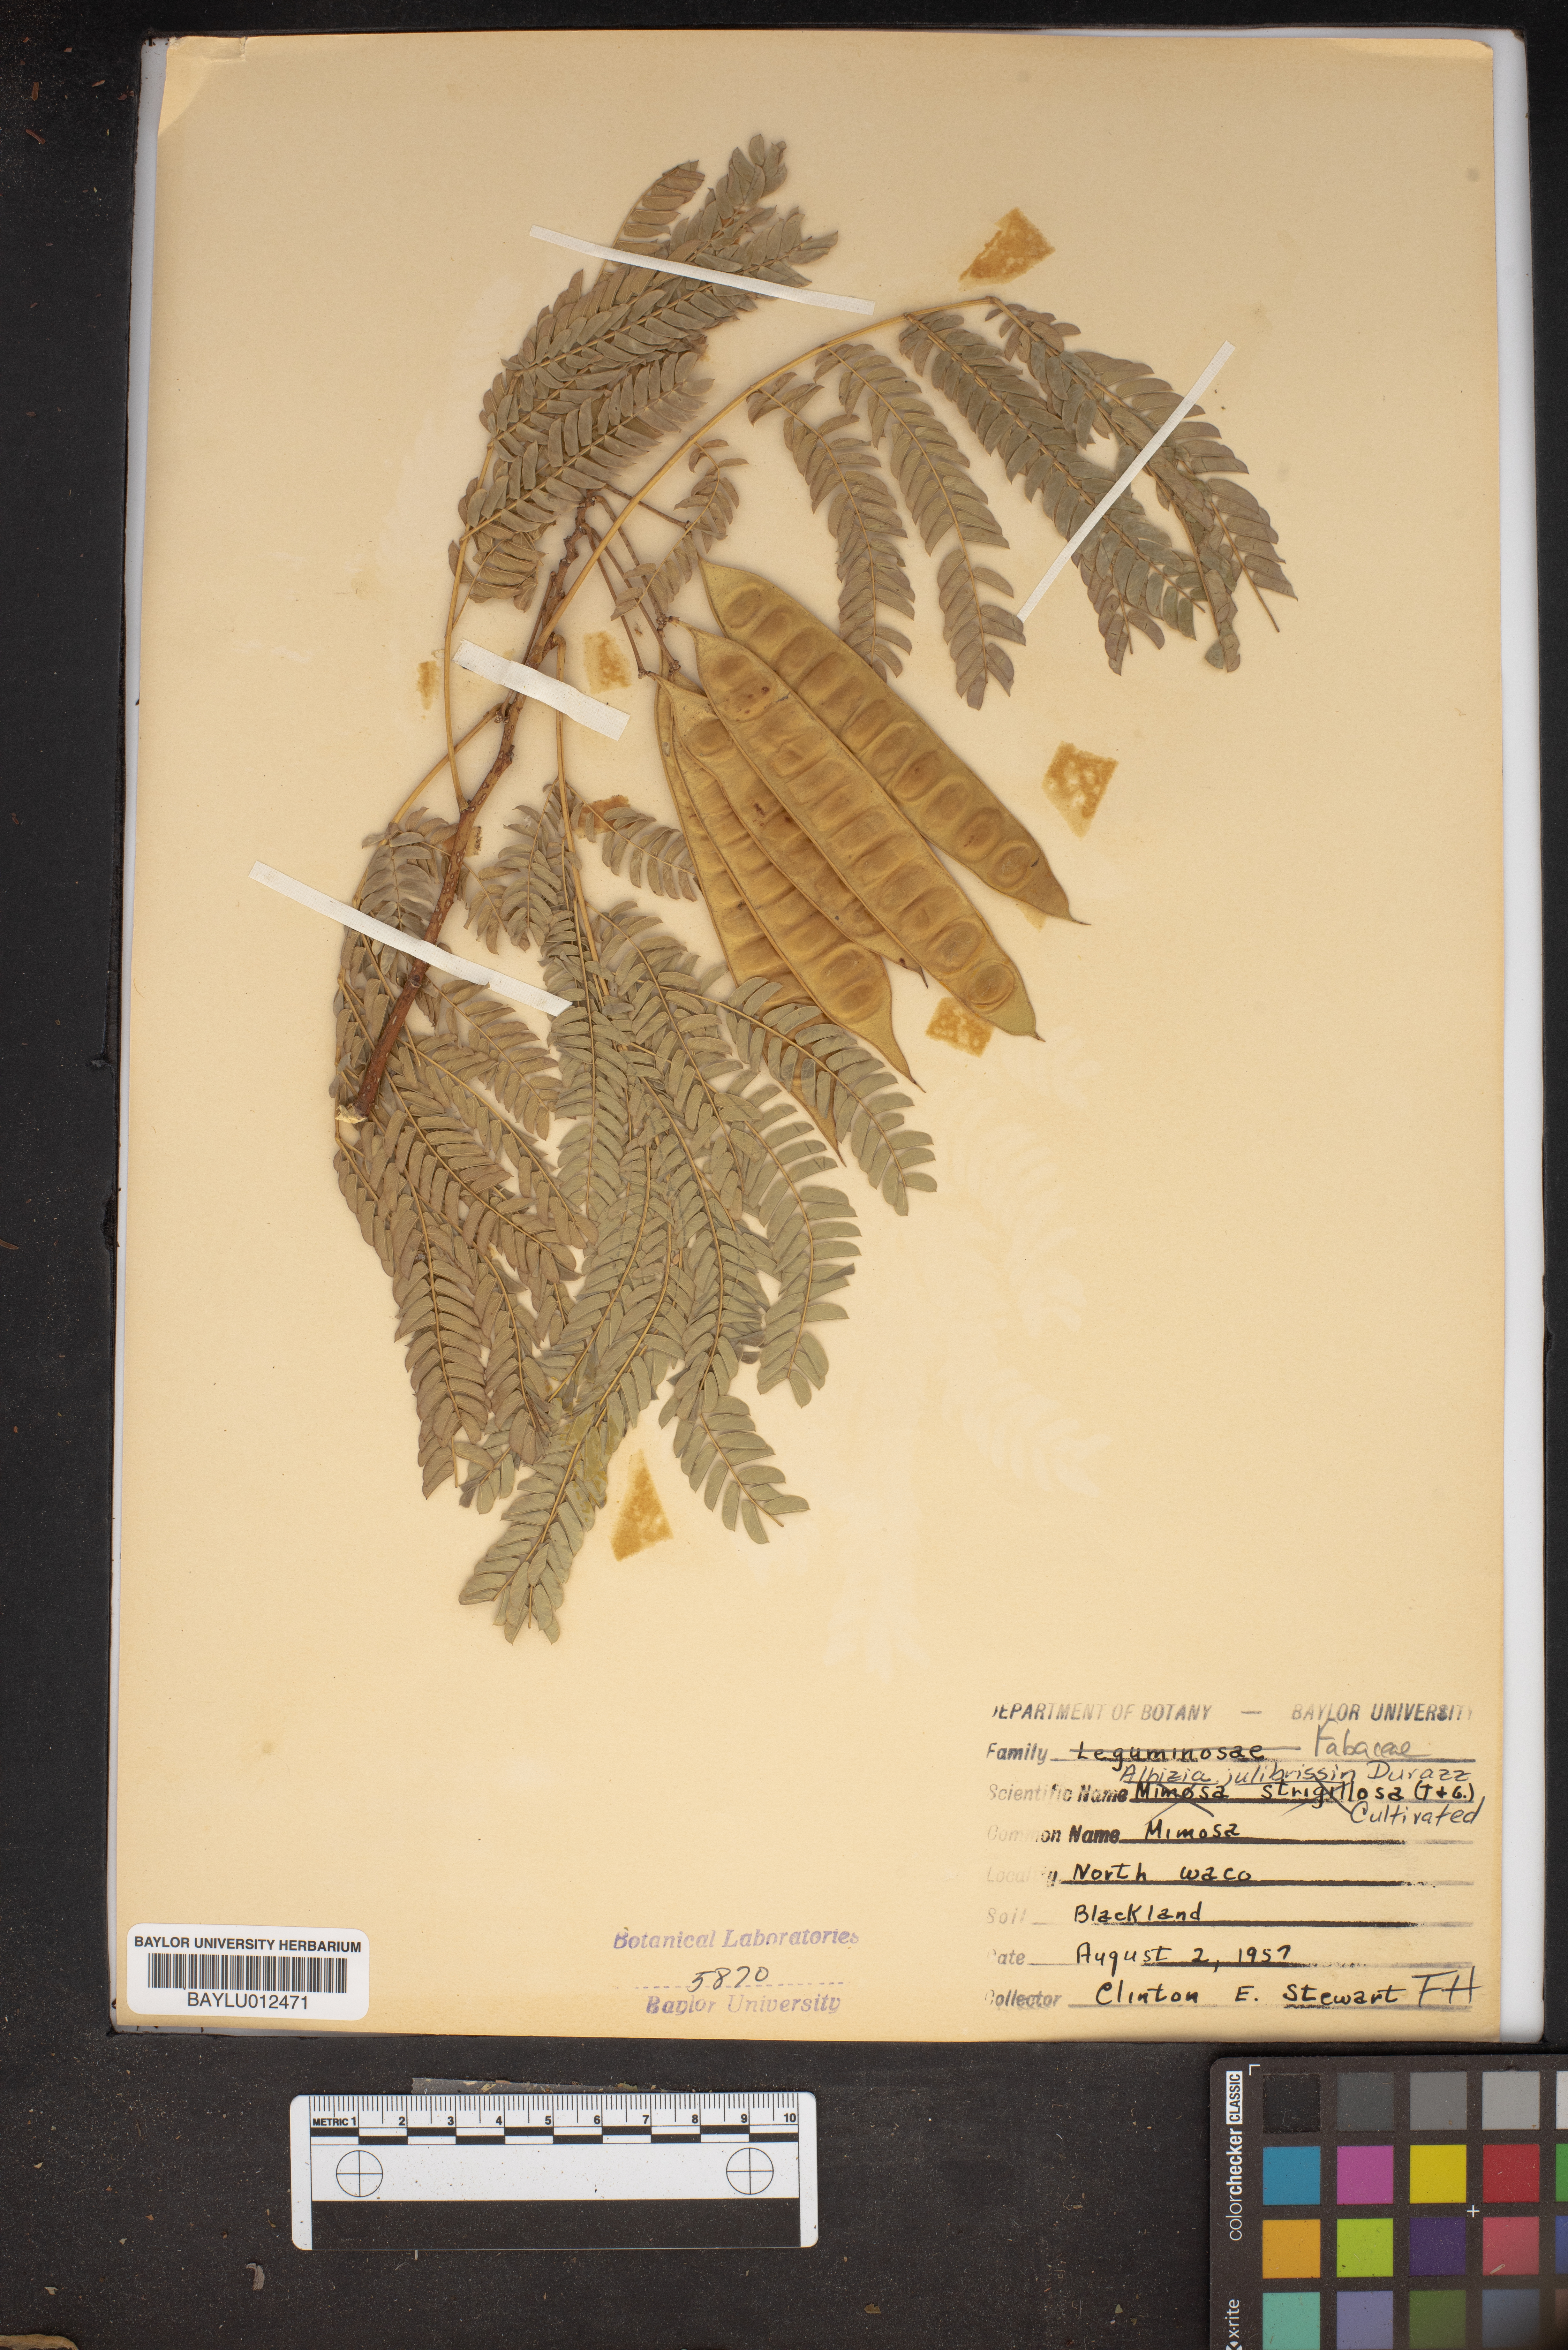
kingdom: Plantae
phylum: Tracheophyta
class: Magnoliopsida
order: Fabales
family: Fabaceae
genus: Albizia
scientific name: Albizia julibrissin
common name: Silktree
